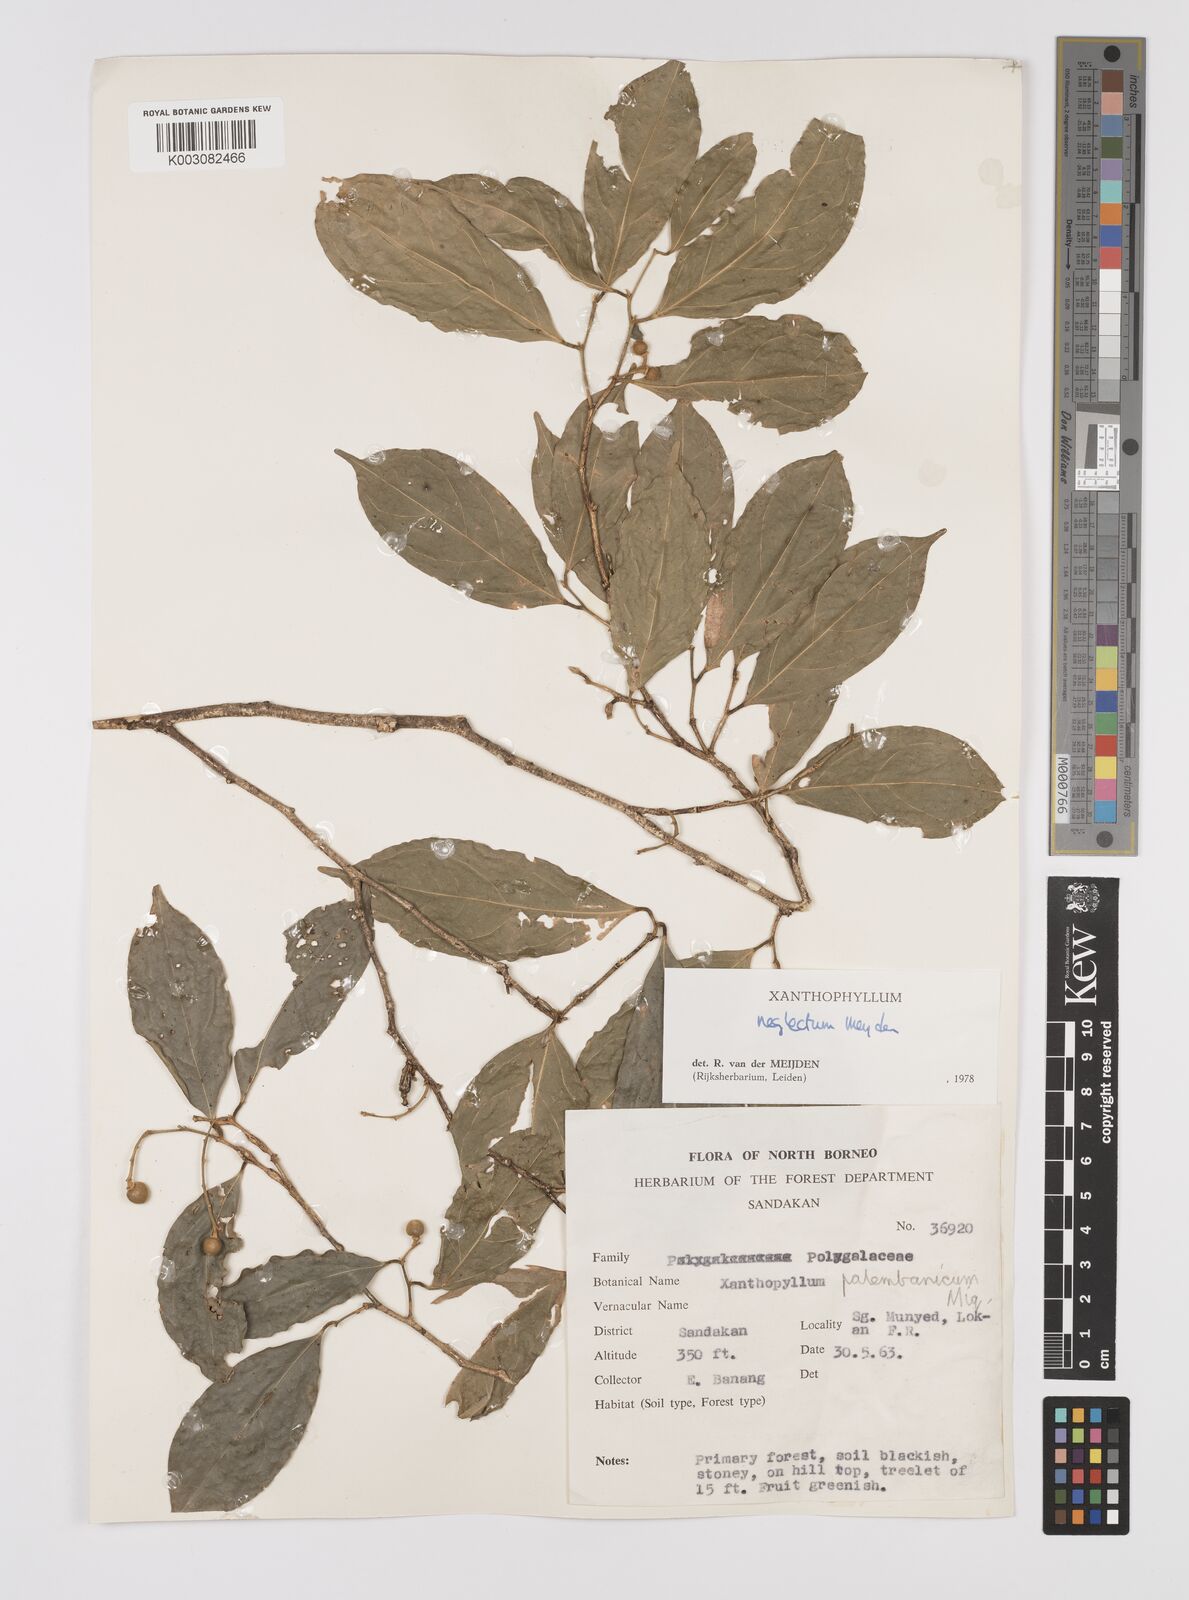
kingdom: Plantae
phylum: Tracheophyta
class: Magnoliopsida
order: Fabales
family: Polygalaceae
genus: Xanthophyllum
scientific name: Xanthophyllum neglectum
